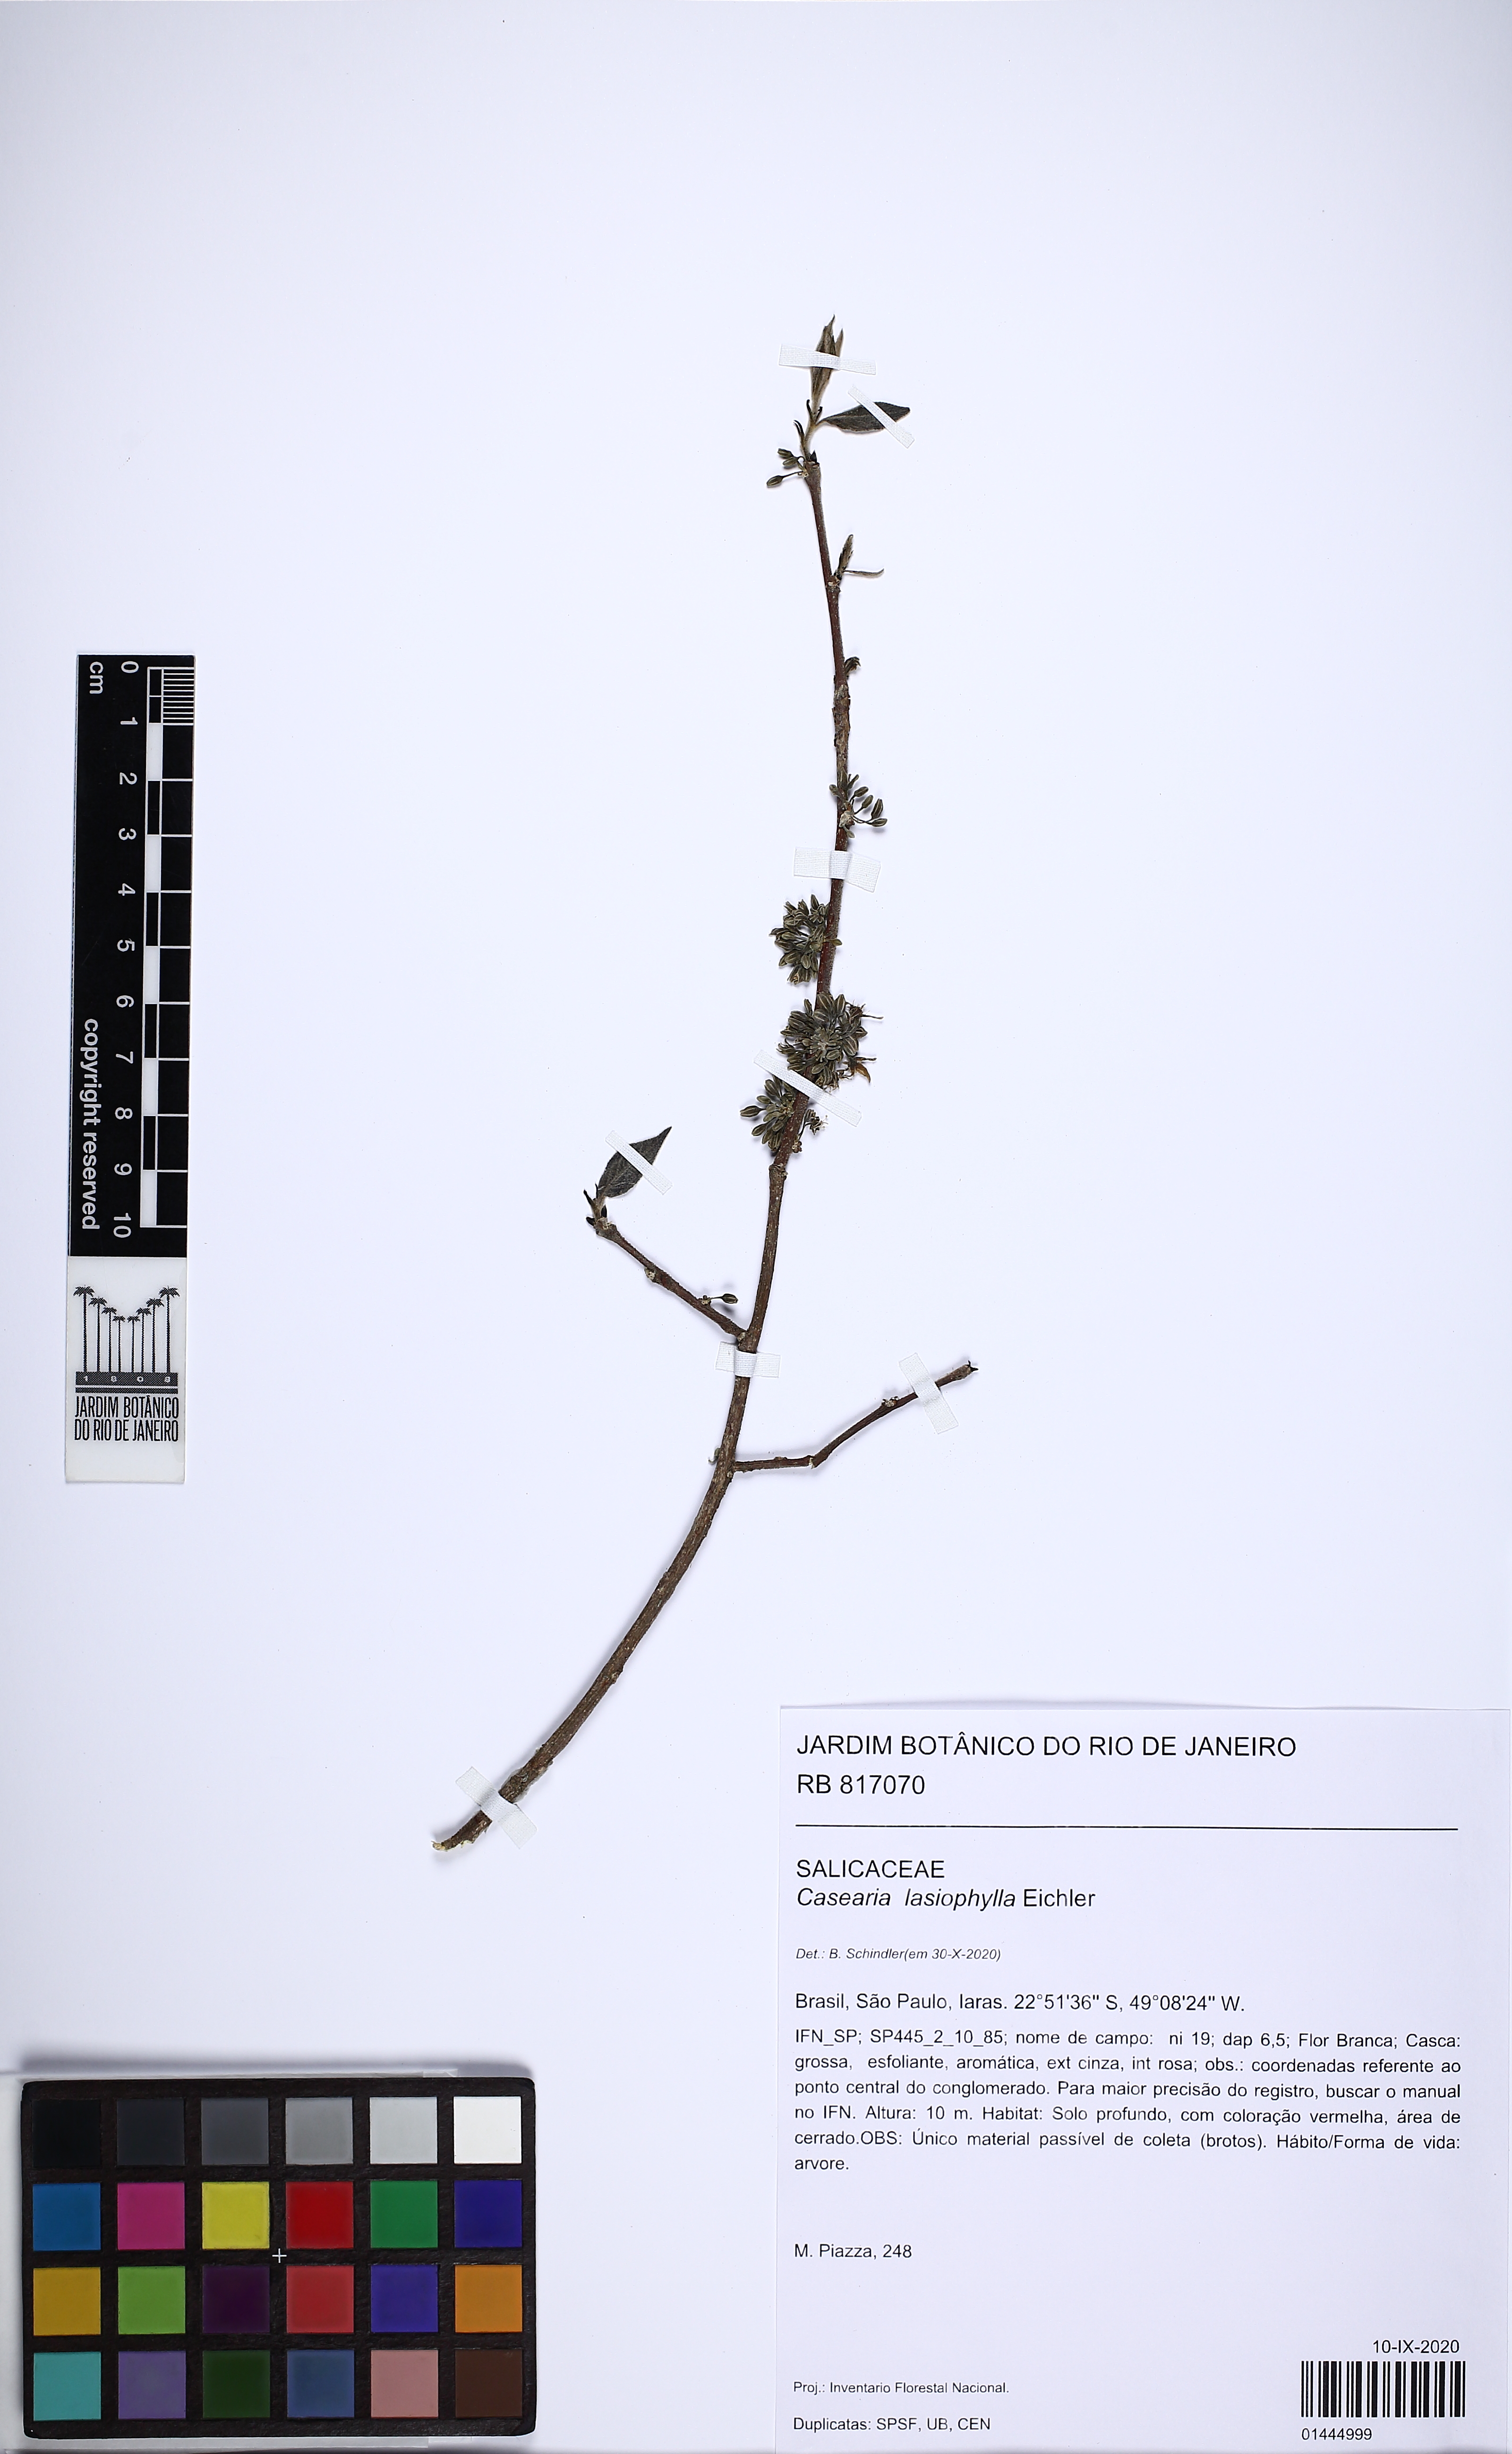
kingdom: Plantae
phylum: Tracheophyta
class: Magnoliopsida
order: Malpighiales
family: Salicaceae
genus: Casearia
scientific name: Casearia lasiophylla
